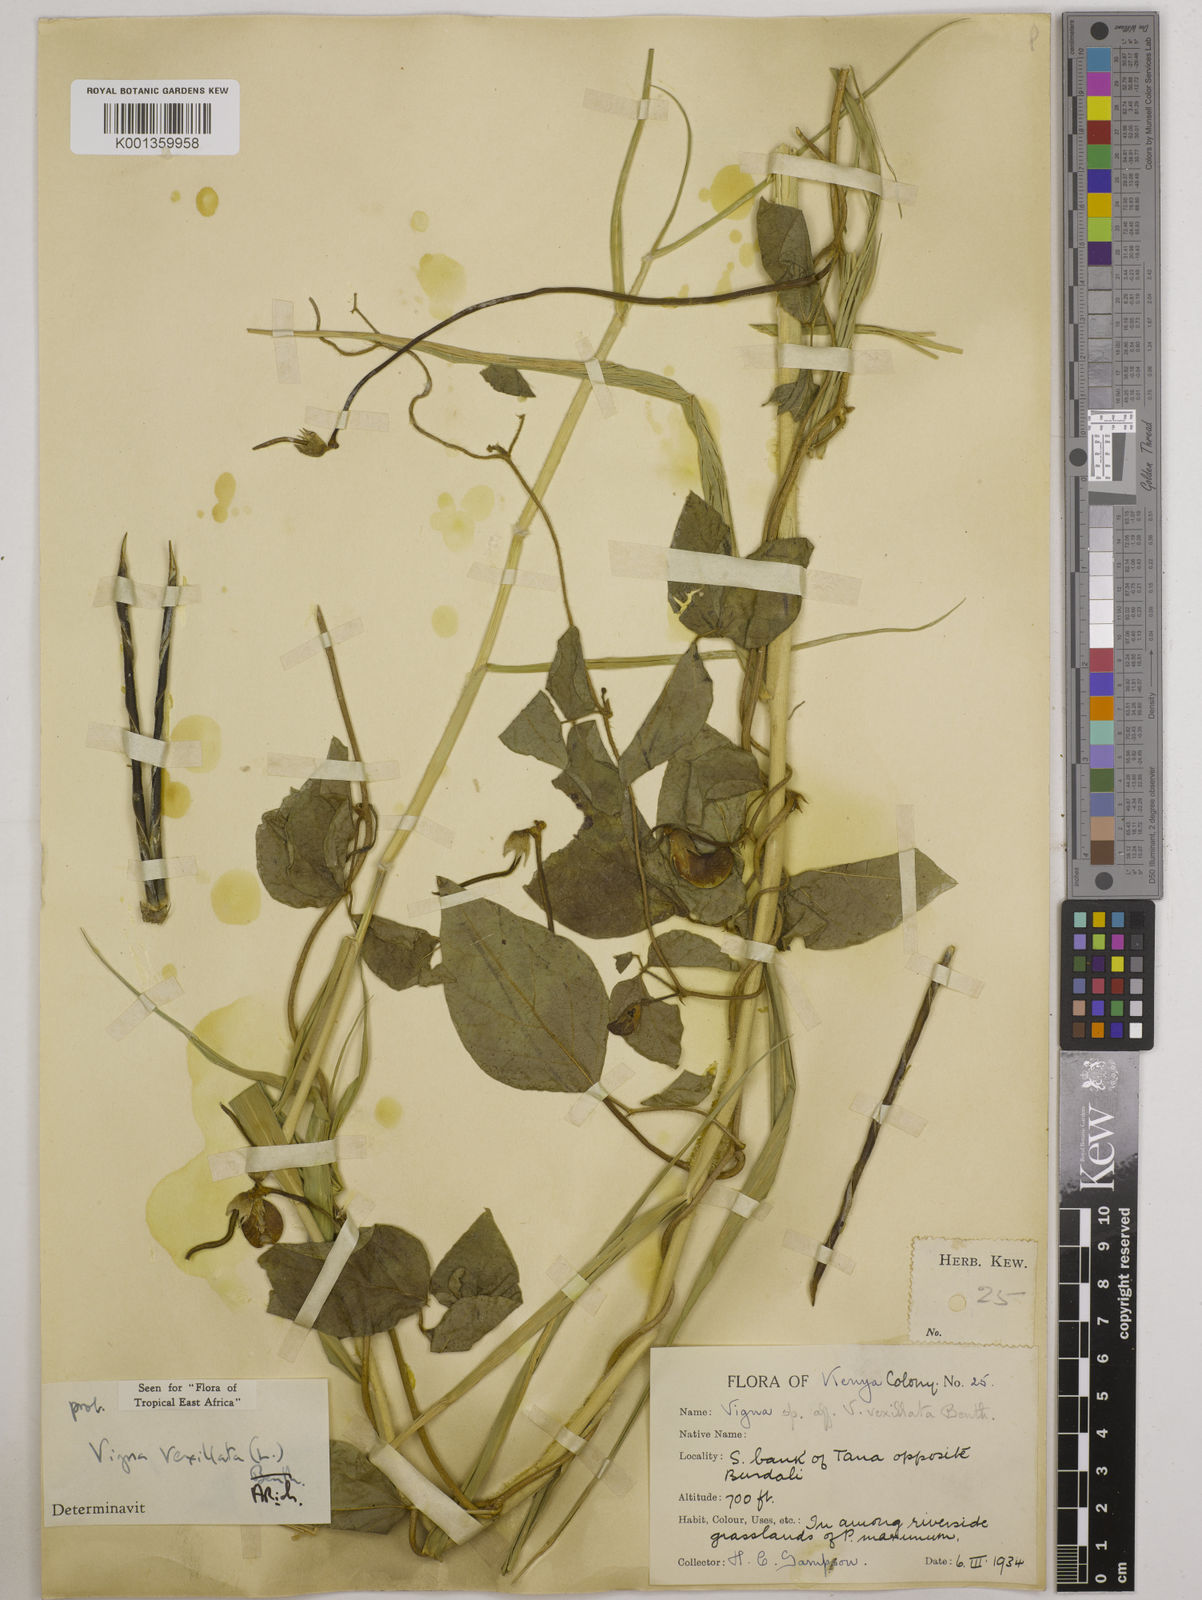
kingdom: Plantae
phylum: Tracheophyta
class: Magnoliopsida
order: Fabales
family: Fabaceae
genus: Vigna
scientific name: Vigna vexillata
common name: Zombi pea
